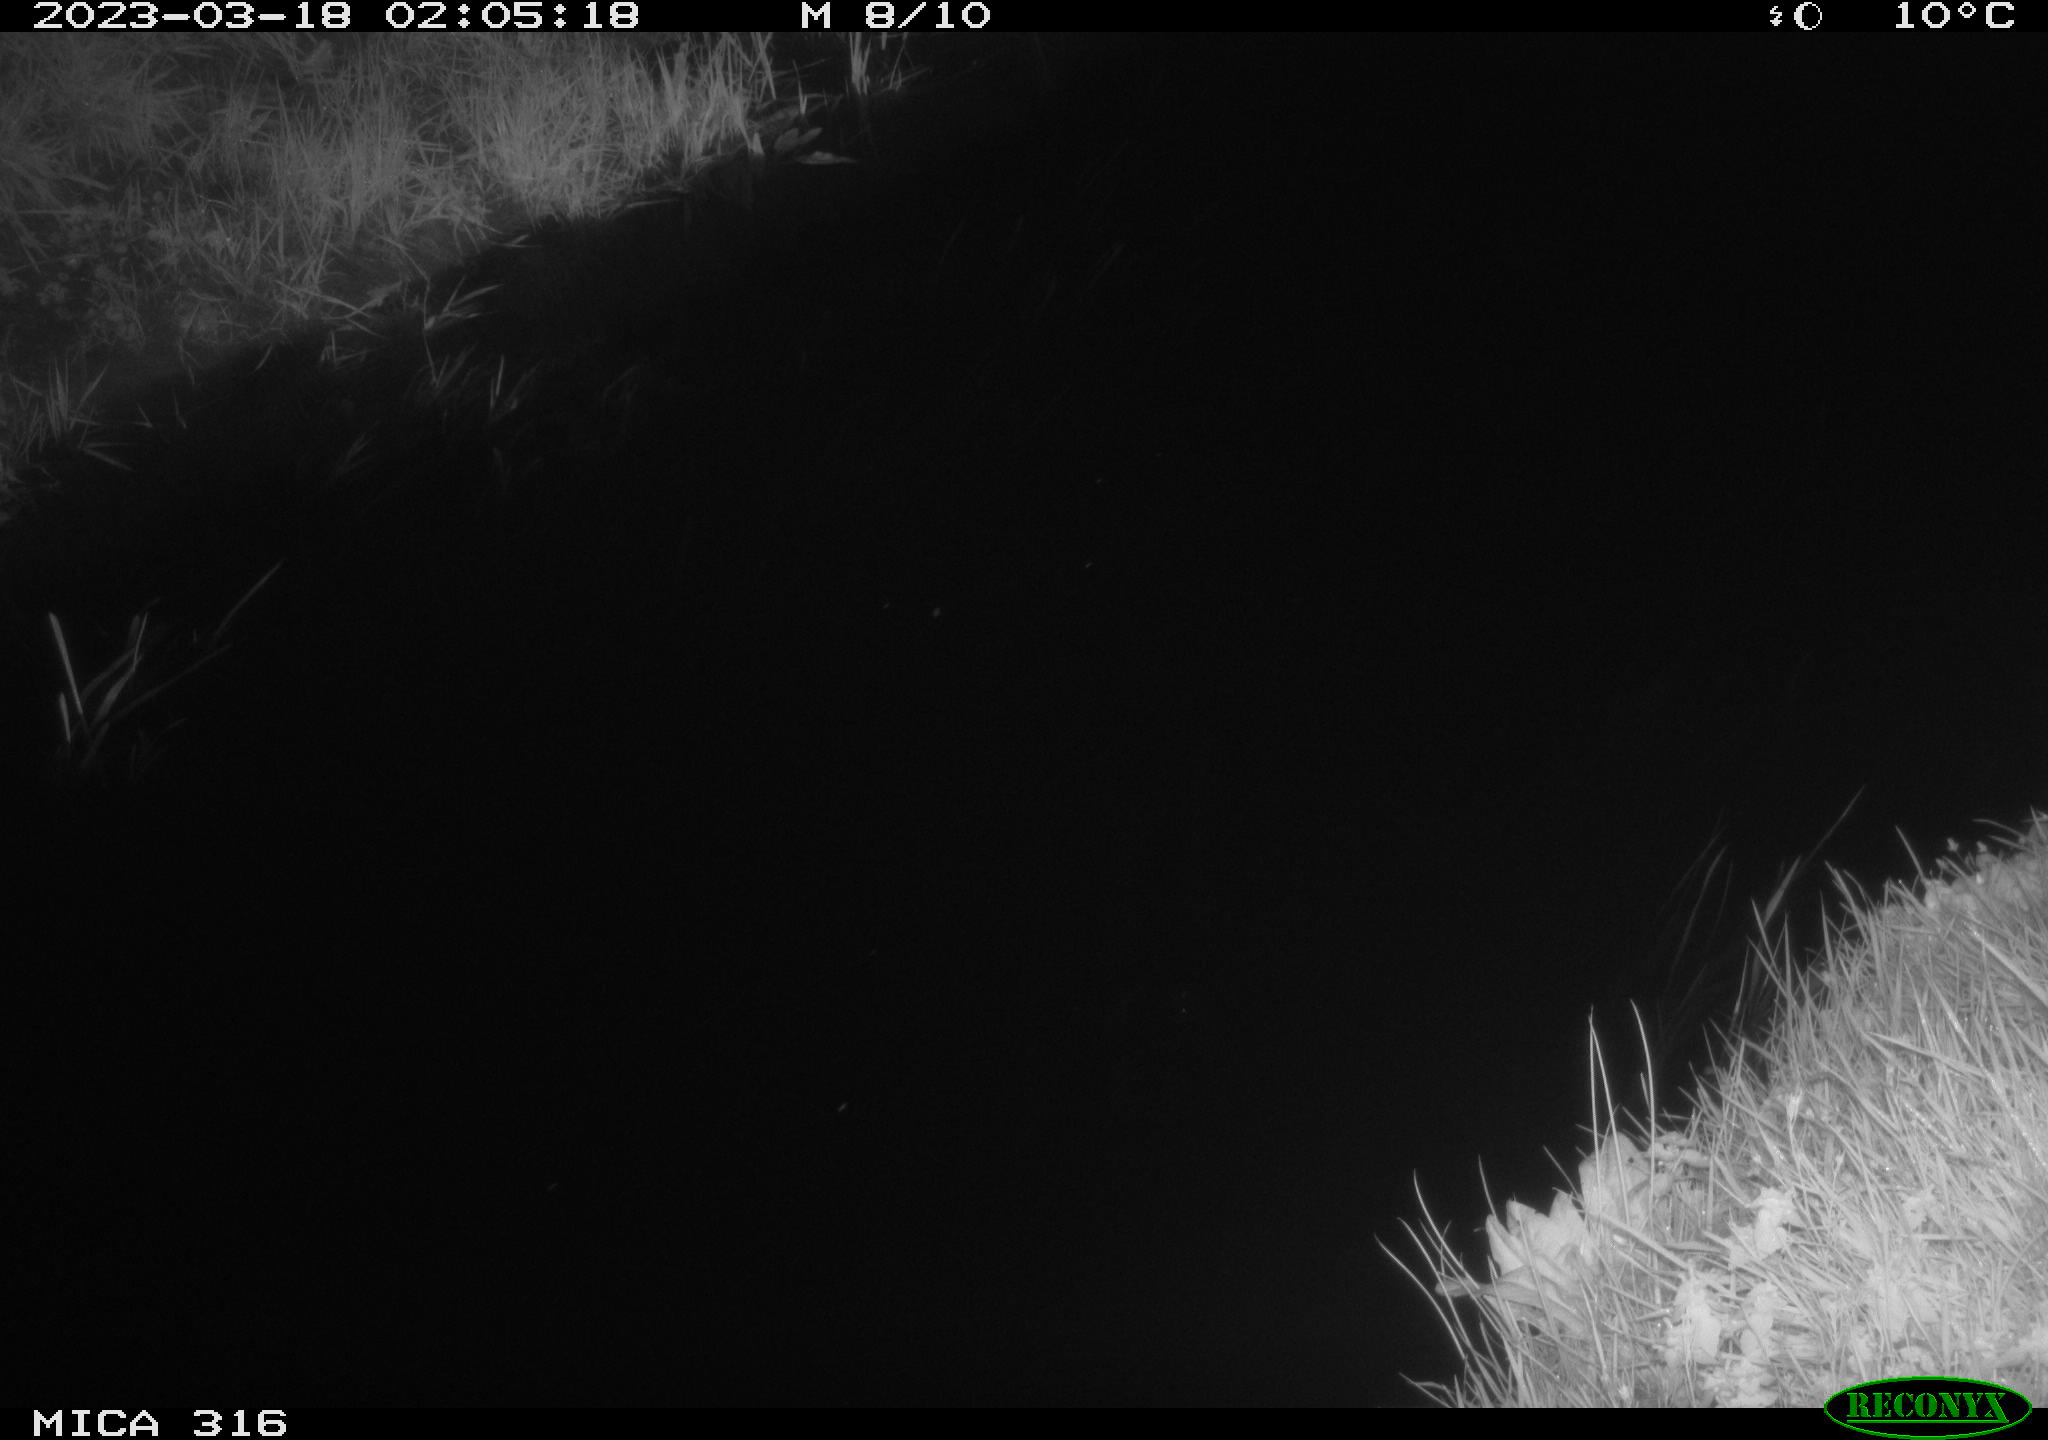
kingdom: Animalia
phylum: Chordata
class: Mammalia
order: Rodentia
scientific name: Rodentia
